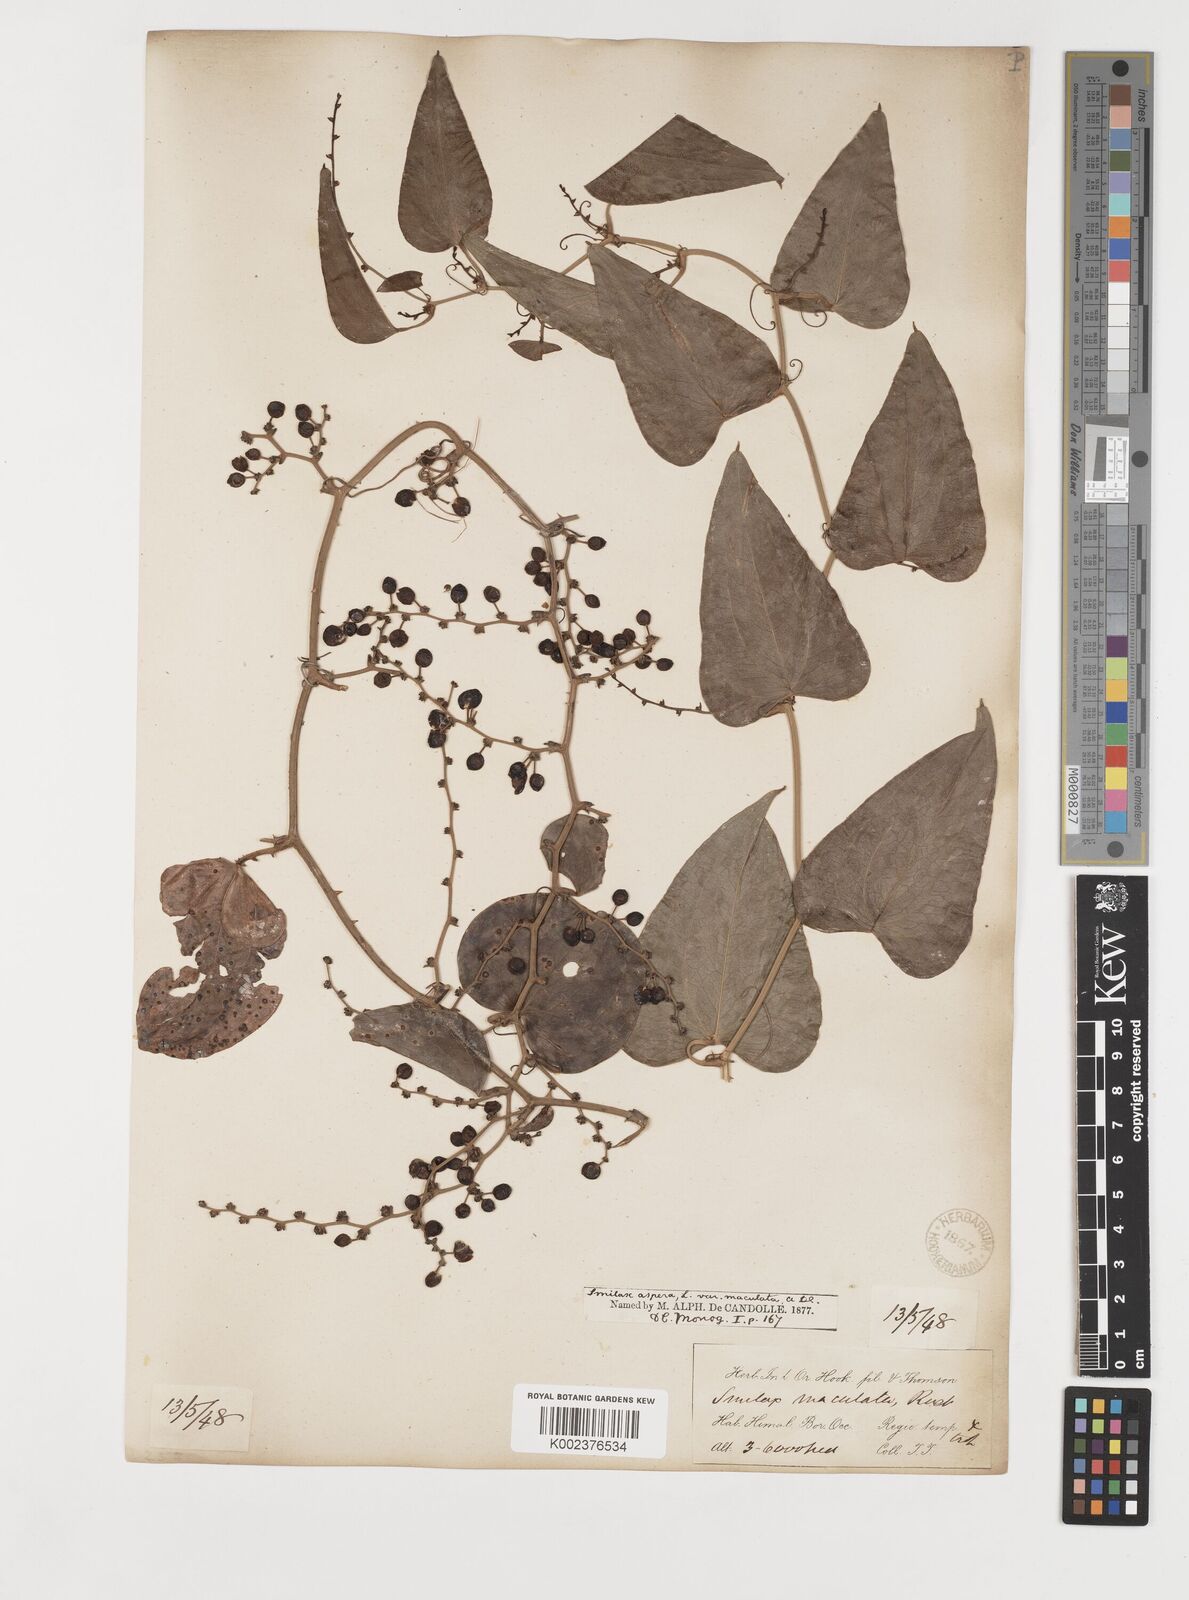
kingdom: Plantae
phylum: Tracheophyta
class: Liliopsida
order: Liliales
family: Smilacaceae
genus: Smilax
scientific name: Smilax aspera
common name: Common smilax
